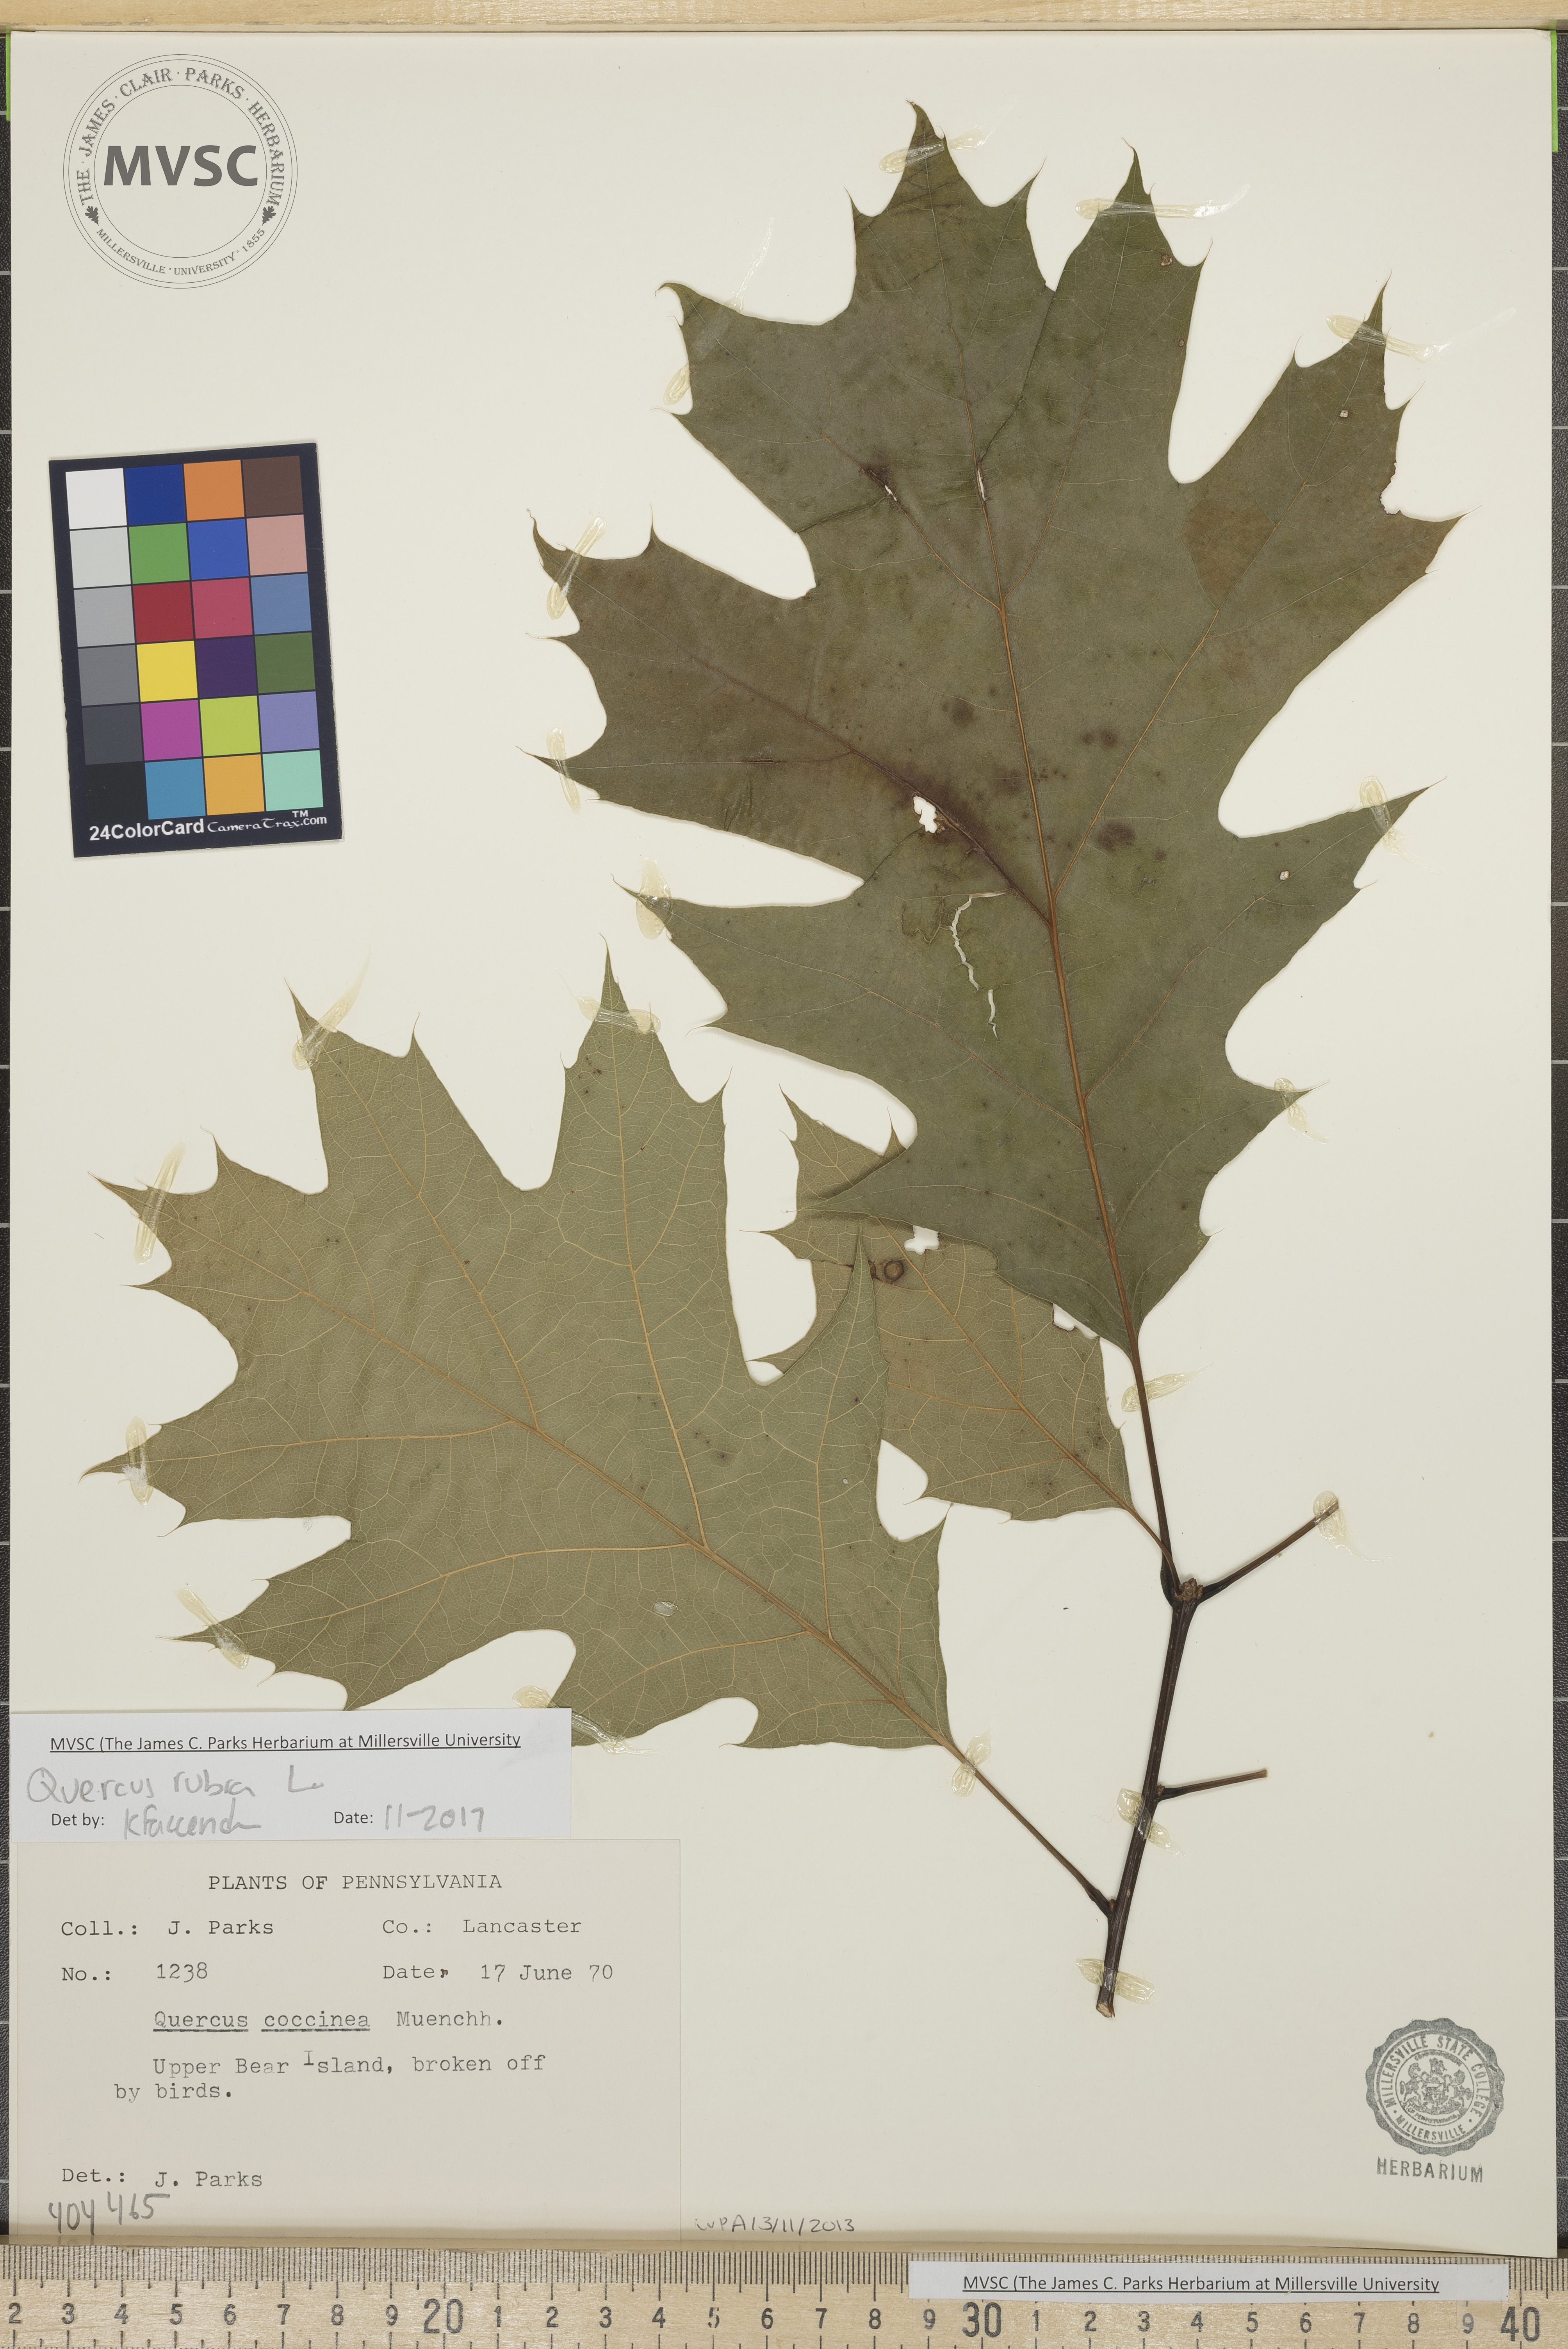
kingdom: Plantae
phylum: Tracheophyta
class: Magnoliopsida
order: Fagales
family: Fagaceae
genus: Quercus
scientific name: Quercus rubra
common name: Red oak
